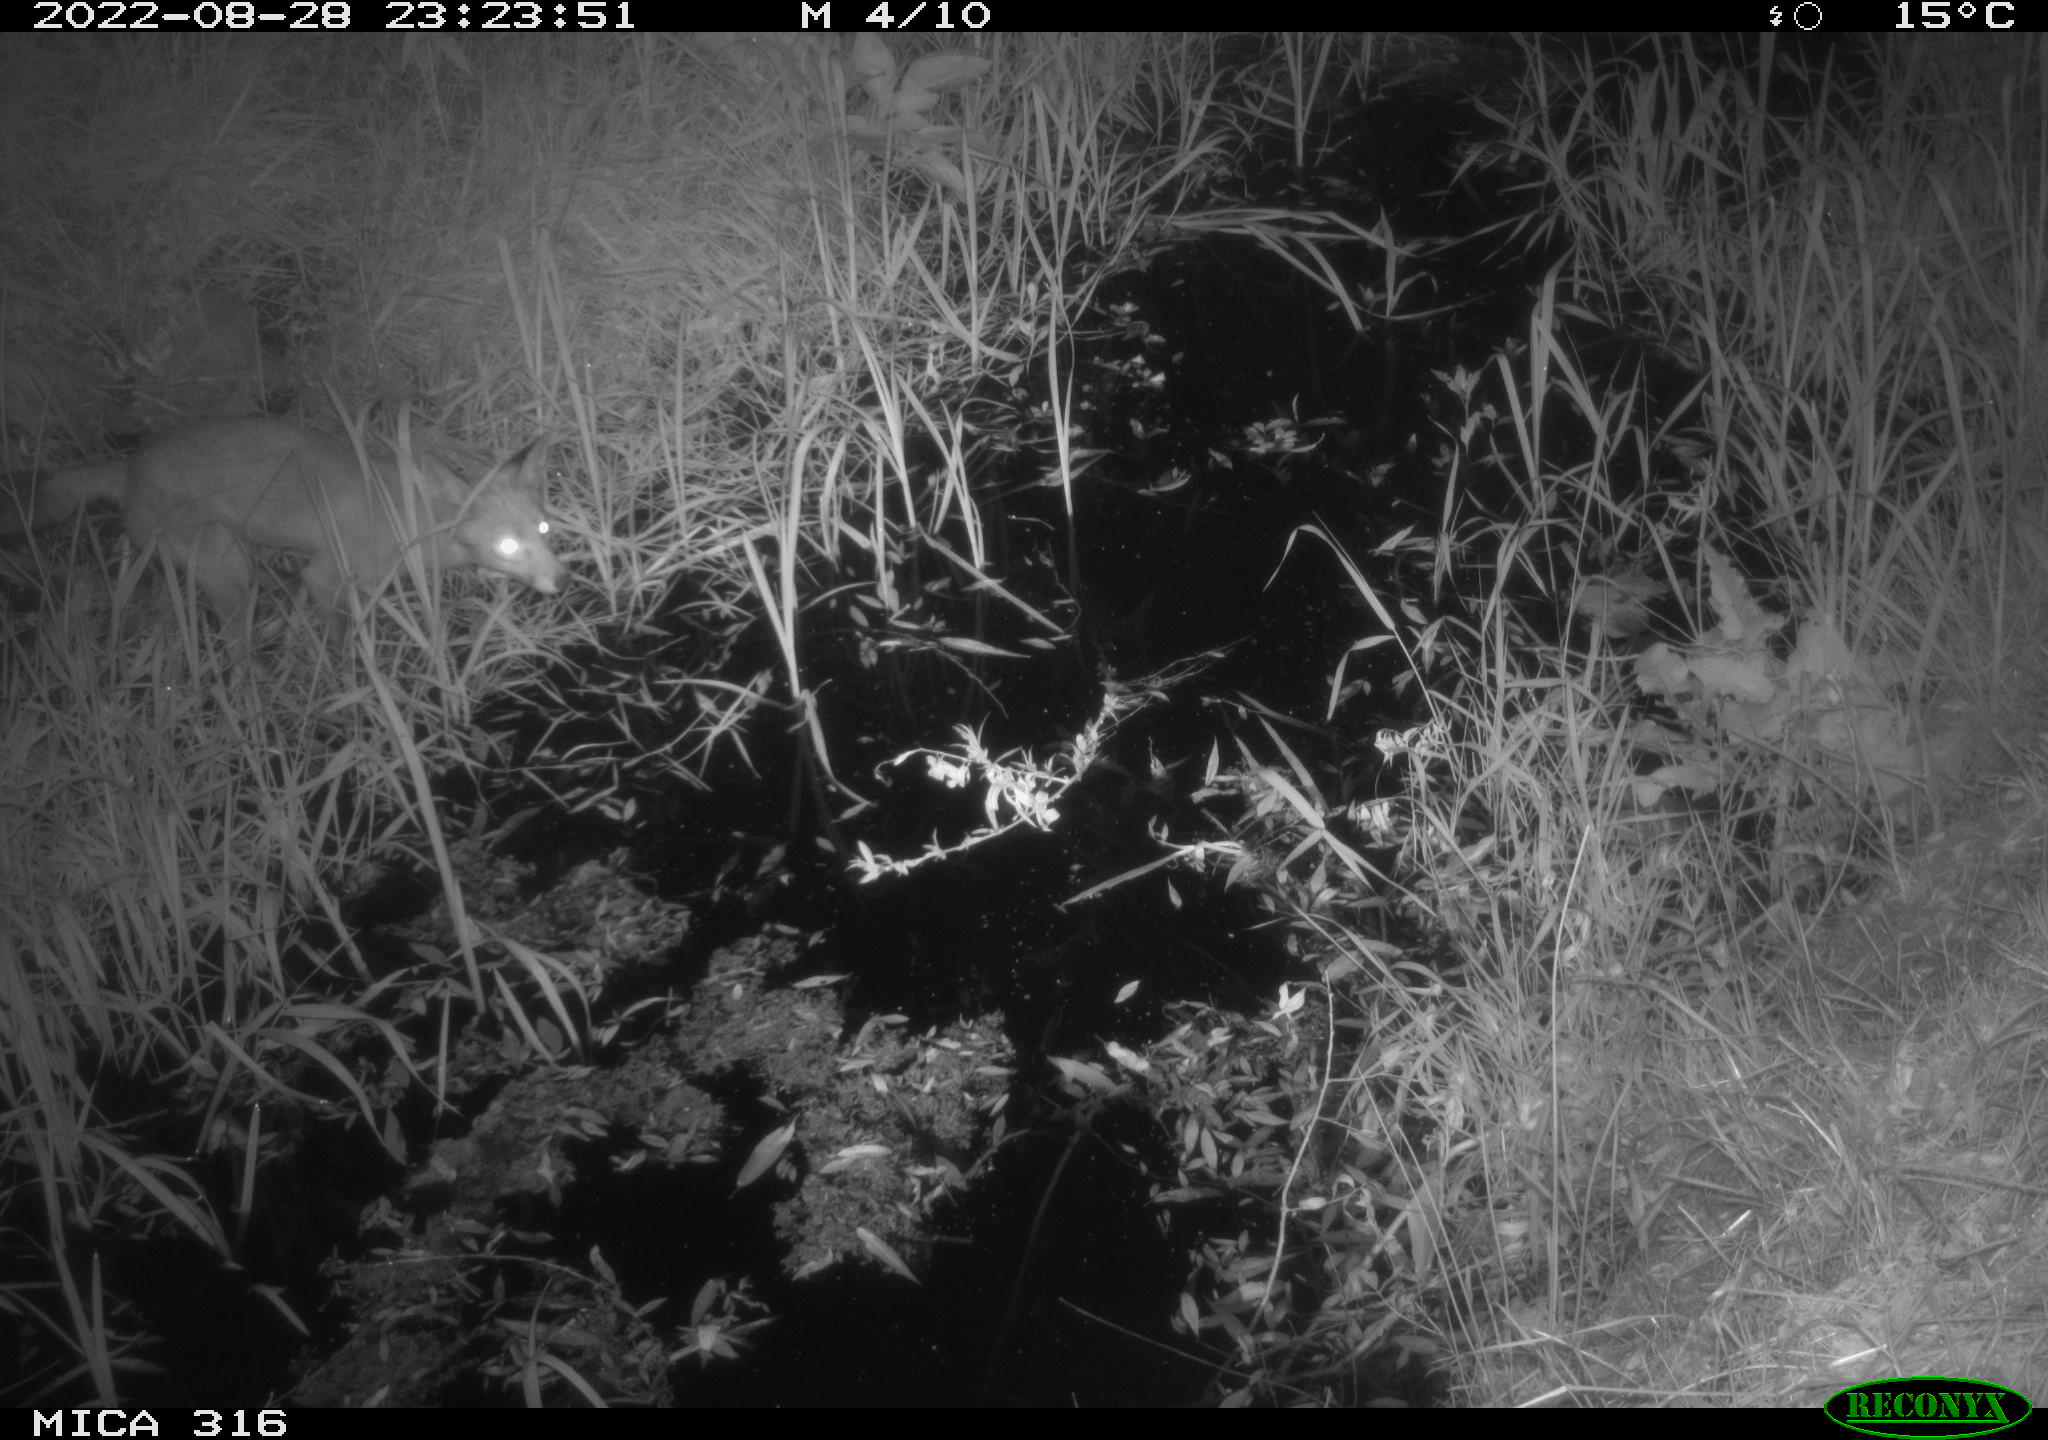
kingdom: Animalia
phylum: Chordata
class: Mammalia
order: Carnivora
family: Canidae
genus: Vulpes
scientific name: Vulpes vulpes
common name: Red fox
